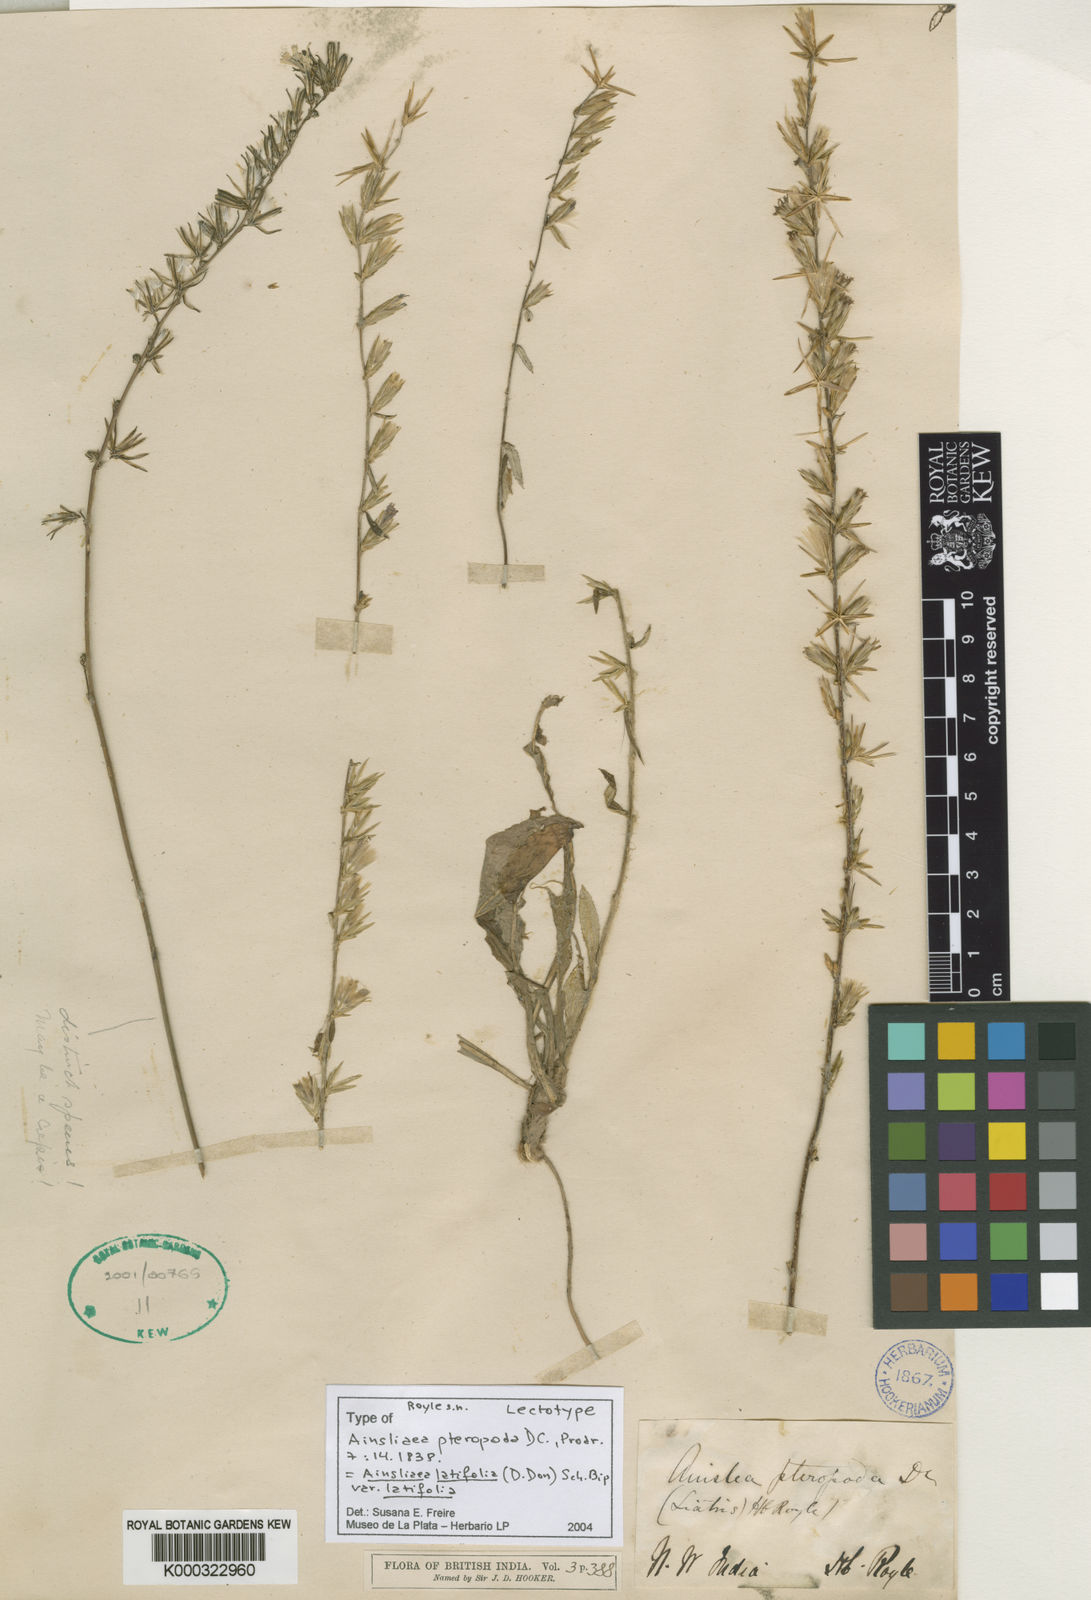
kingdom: Plantae
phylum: Tracheophyta
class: Magnoliopsida
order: Asterales
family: Asteraceae
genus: Ainsliaea
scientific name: Ainsliaea latifolia
